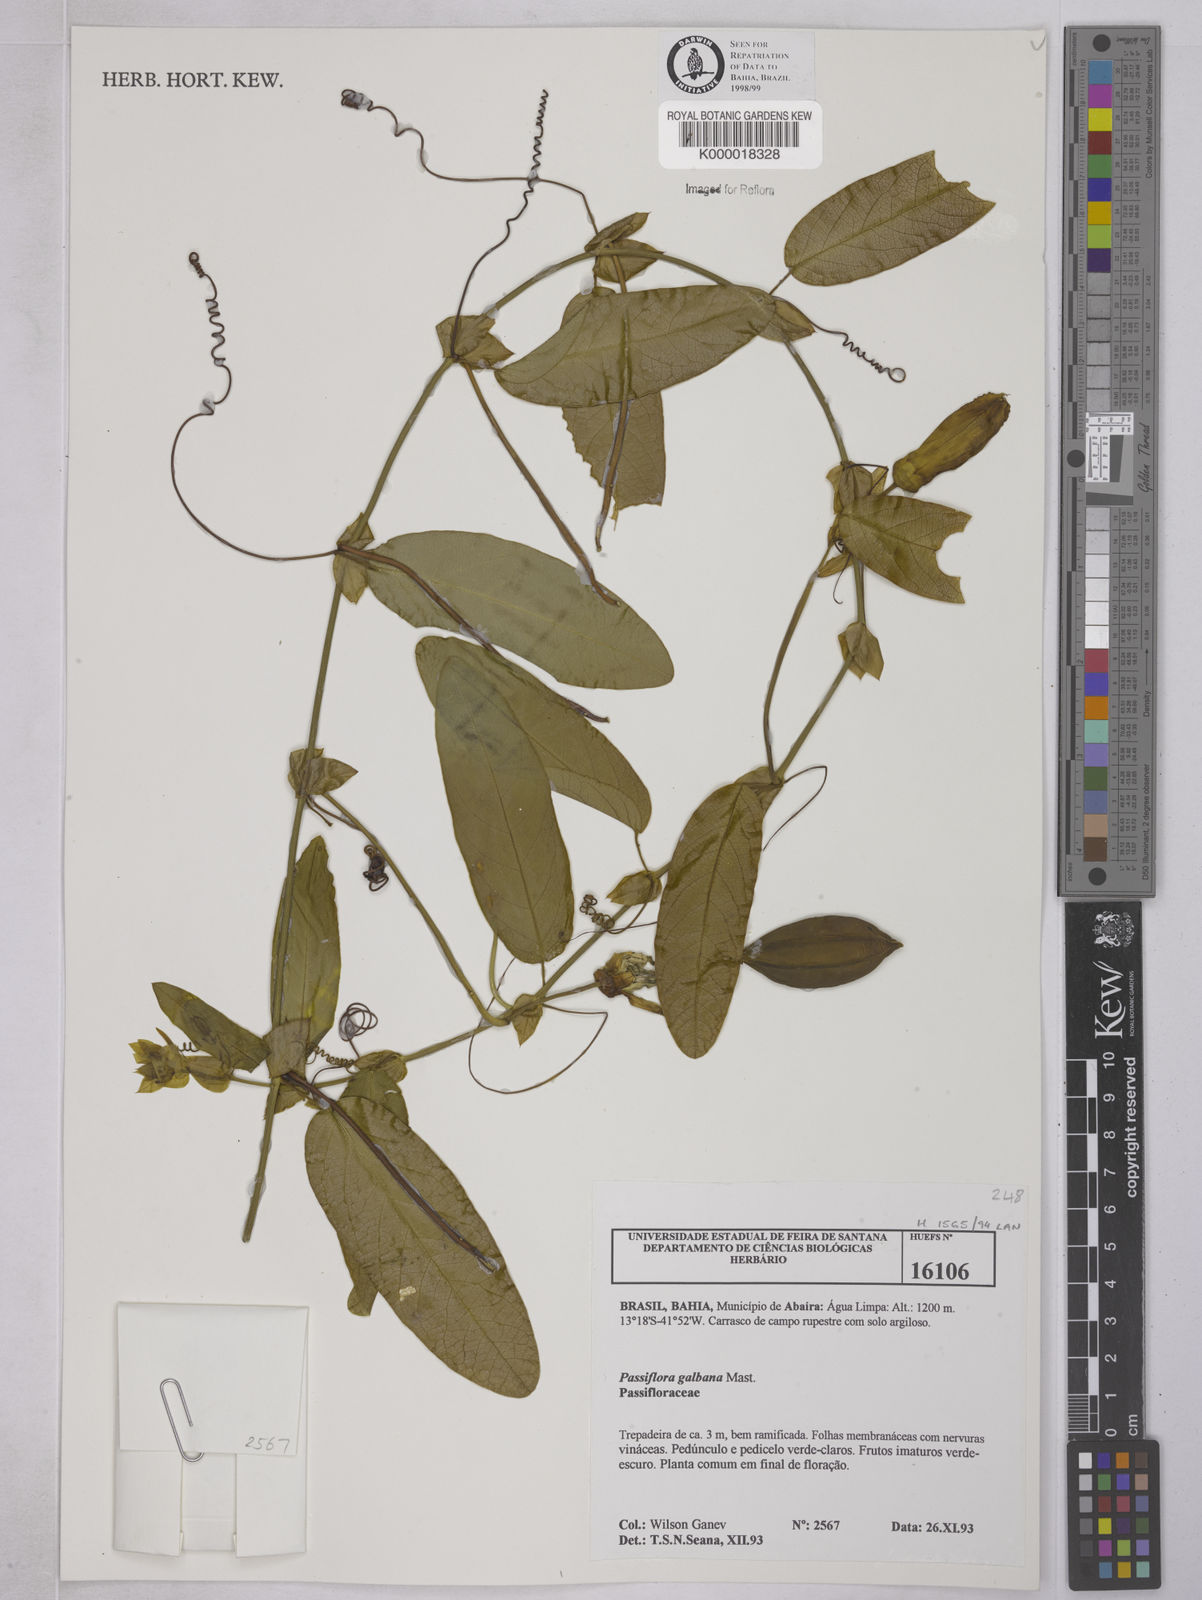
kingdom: Plantae
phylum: Tracheophyta
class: Magnoliopsida
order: Malpighiales
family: Passifloraceae
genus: Passiflora
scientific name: Passiflora silvestris
